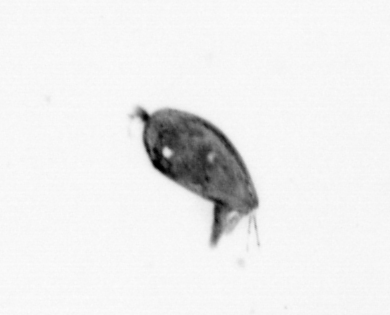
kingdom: Animalia
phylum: Arthropoda
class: Maxillopoda
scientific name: Maxillopoda
